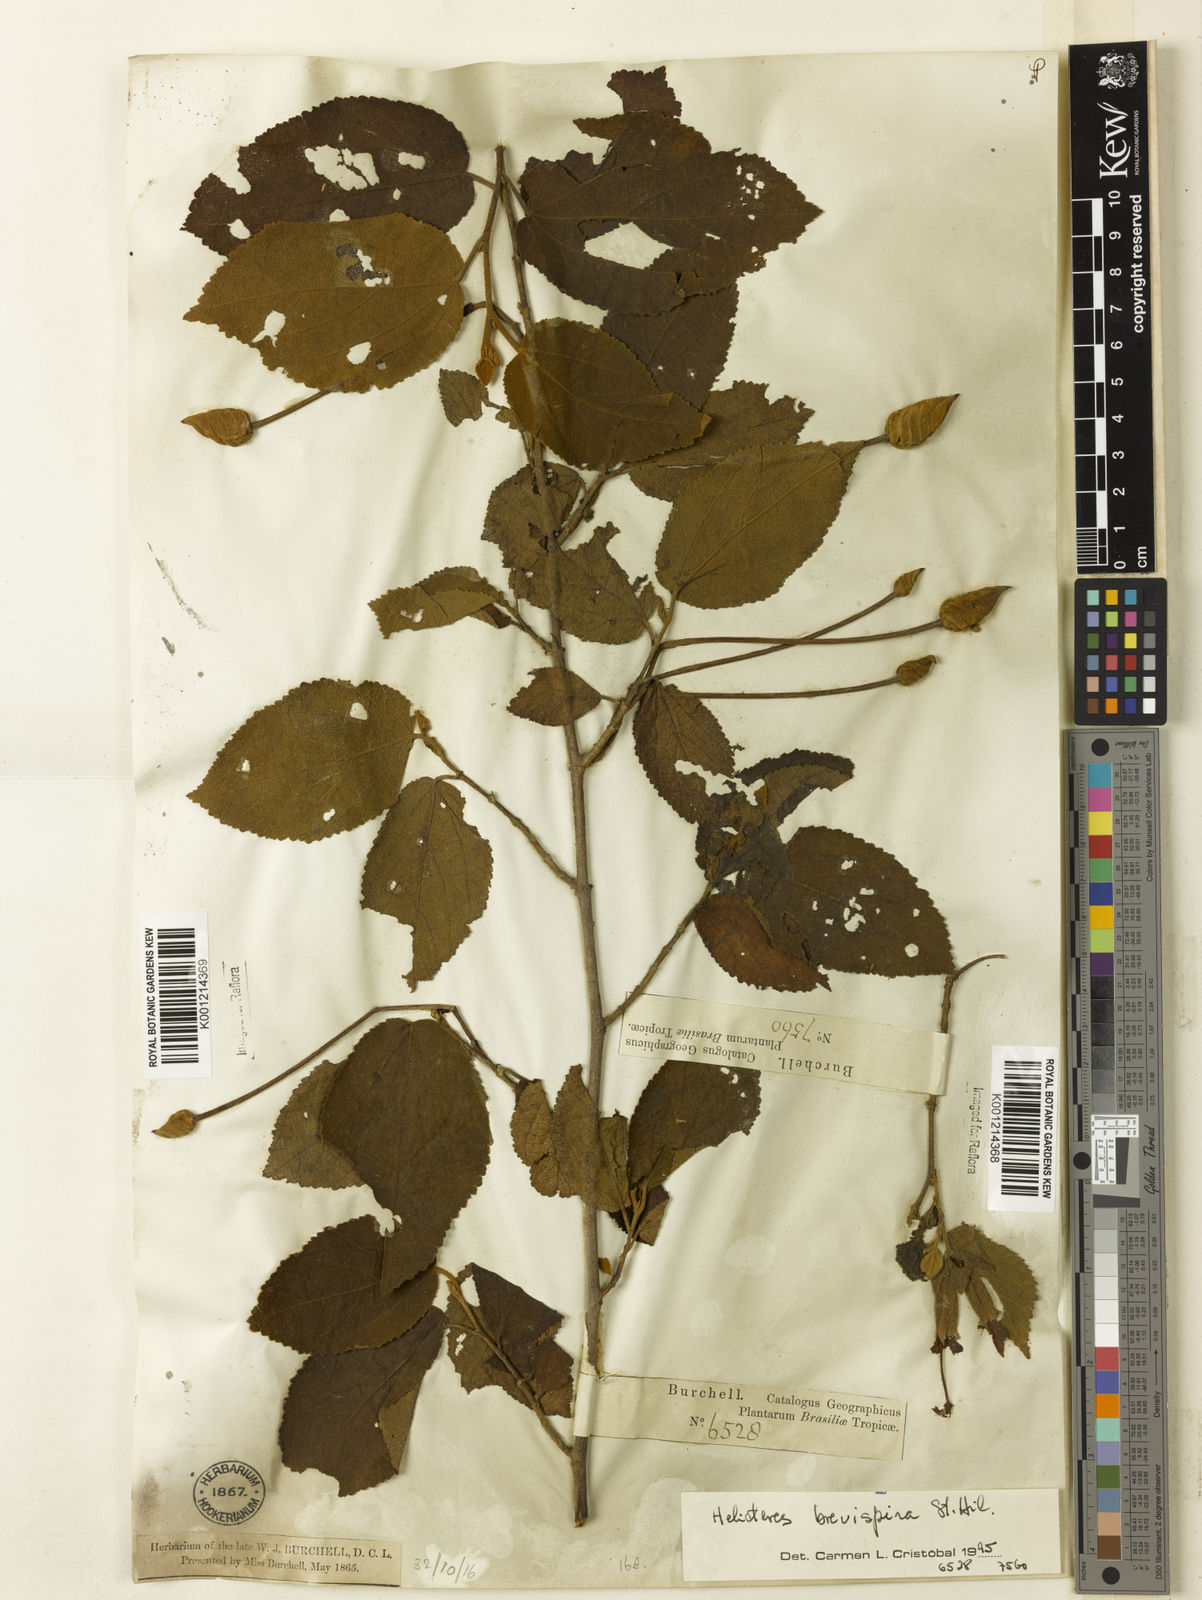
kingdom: Plantae
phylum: Tracheophyta
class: Magnoliopsida
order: Malvales
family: Malvaceae
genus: Helicteres
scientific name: Helicteres
